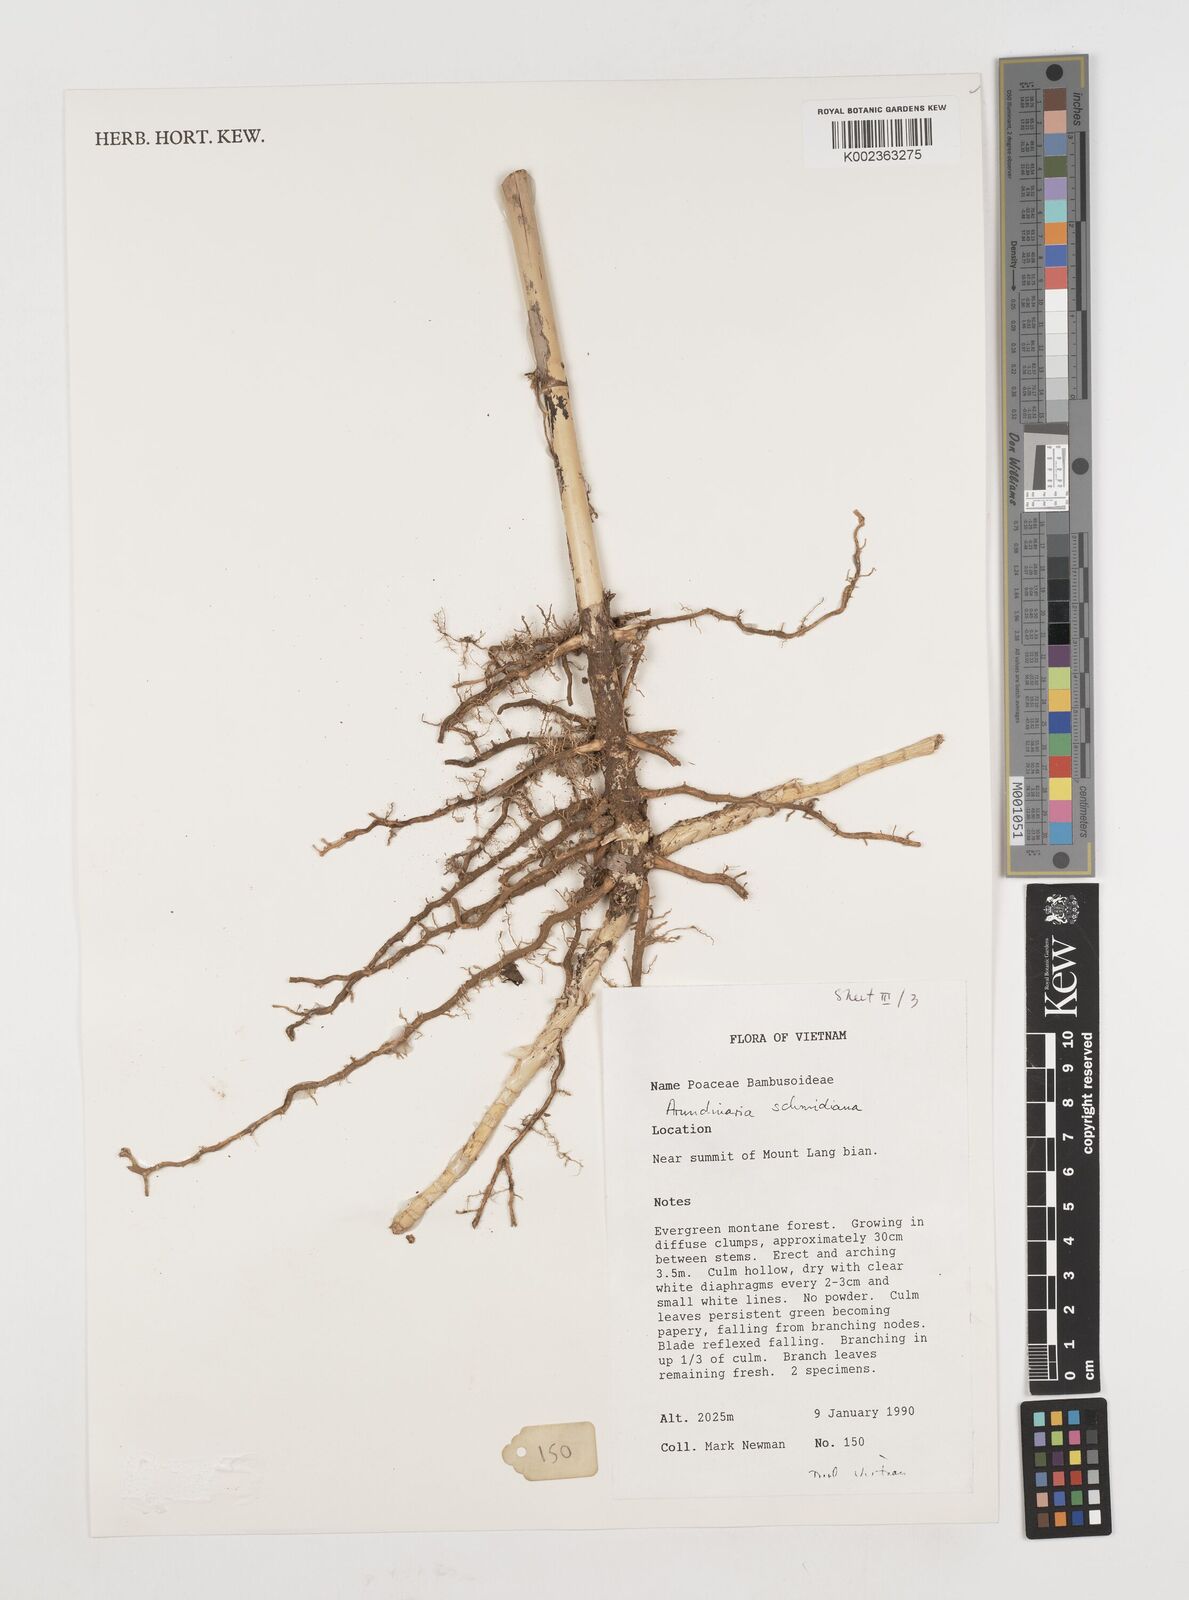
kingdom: Plantae
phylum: Tracheophyta
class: Liliopsida
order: Poales
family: Poaceae
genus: Fargesia
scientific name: Fargesia
